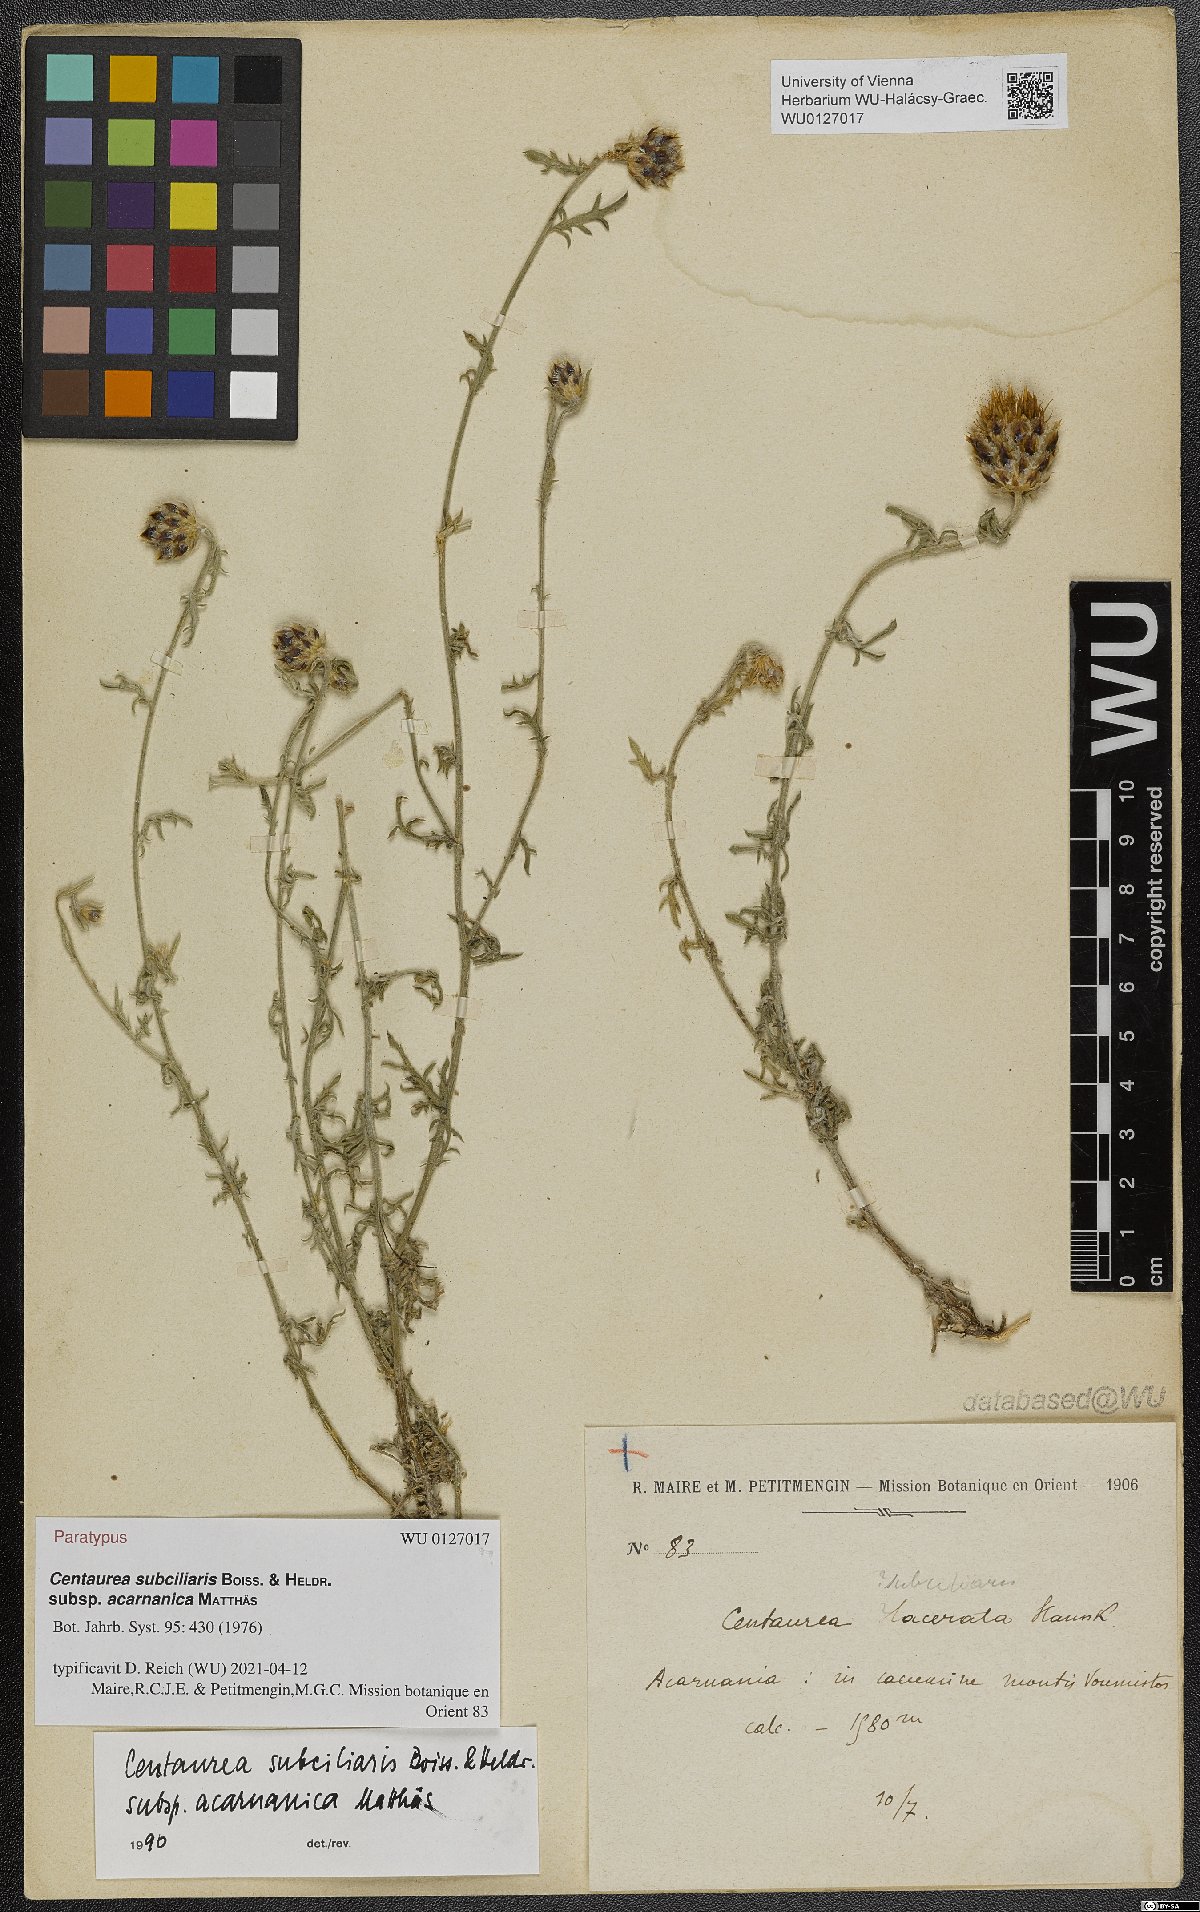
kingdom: Plantae
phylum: Tracheophyta
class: Magnoliopsida
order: Asterales
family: Asteraceae
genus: Centaurea
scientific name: Centaurea acarnanica
